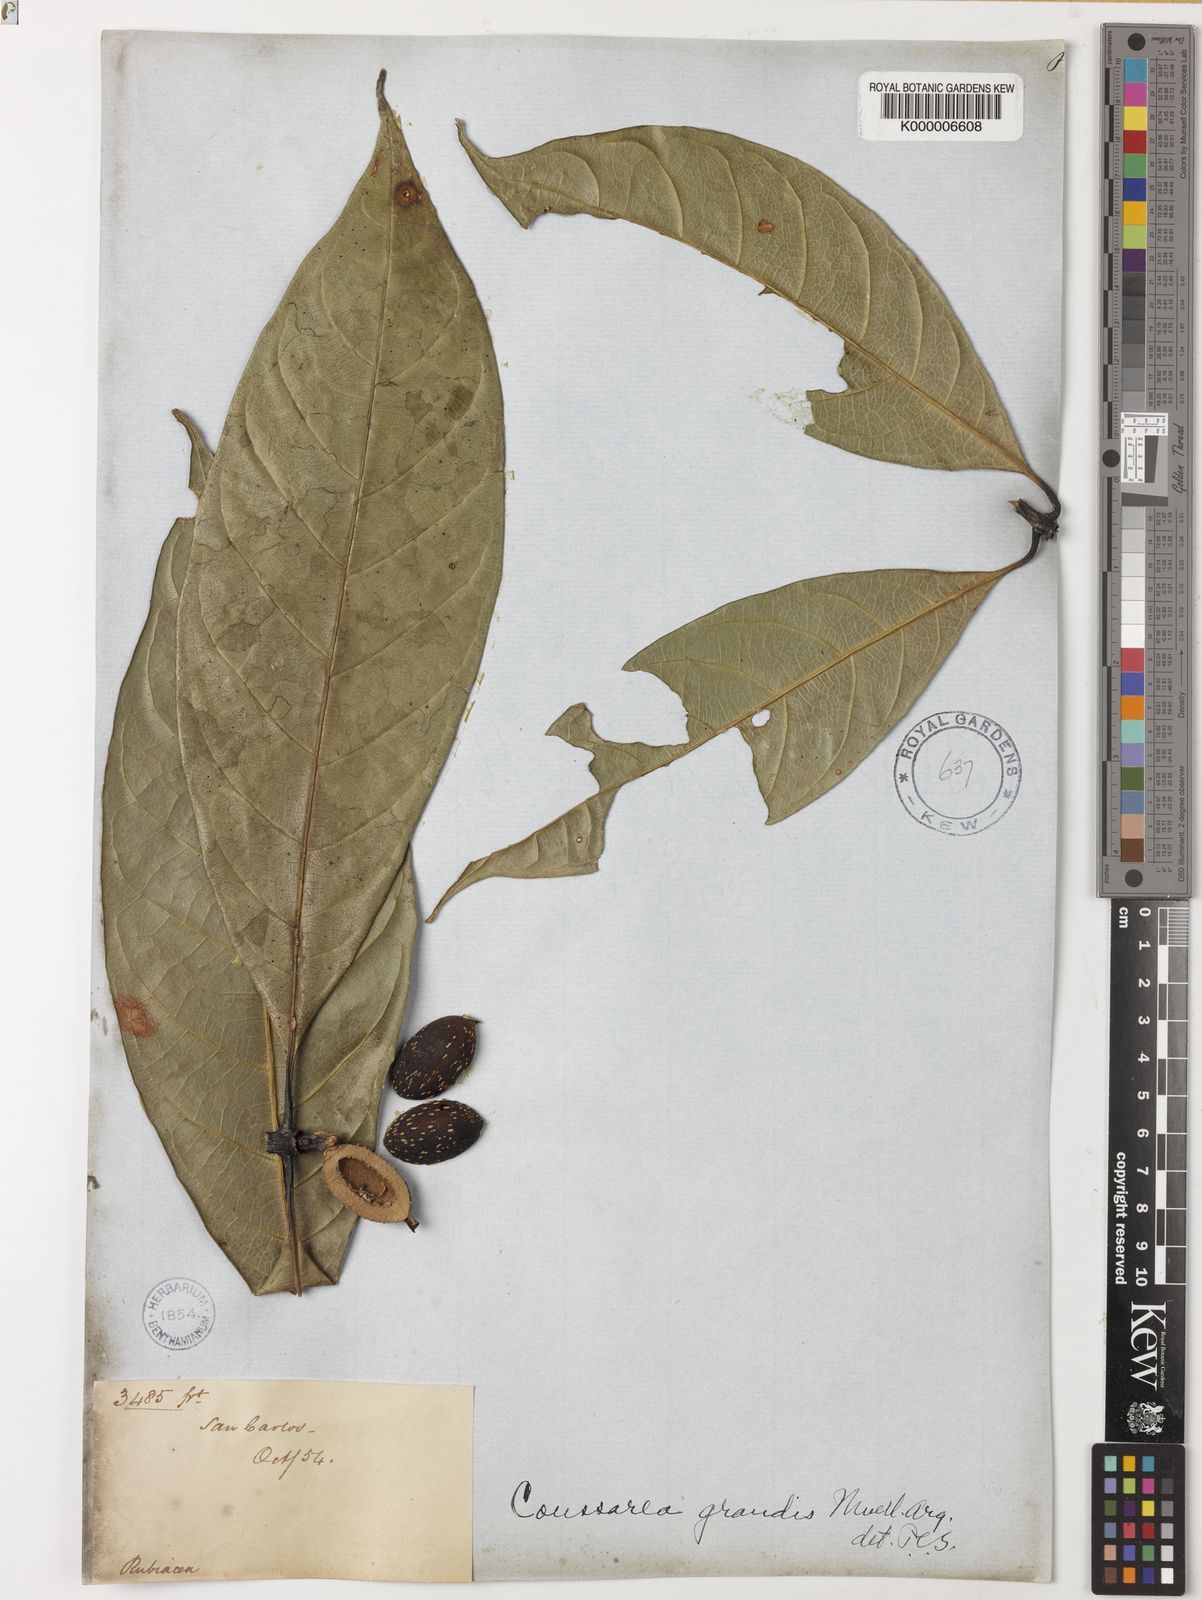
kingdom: Plantae
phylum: Tracheophyta
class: Magnoliopsida
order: Gentianales
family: Rubiaceae
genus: Coussarea
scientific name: Coussarea
